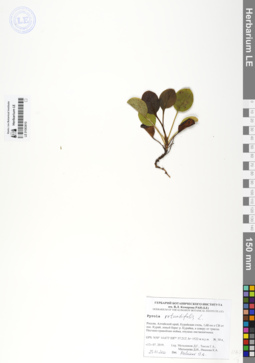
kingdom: Plantae
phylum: Tracheophyta
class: Magnoliopsida
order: Ericales
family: Ericaceae
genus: Pyrola
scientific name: Pyrola rotundifolia
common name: Round-leaved wintergreen
